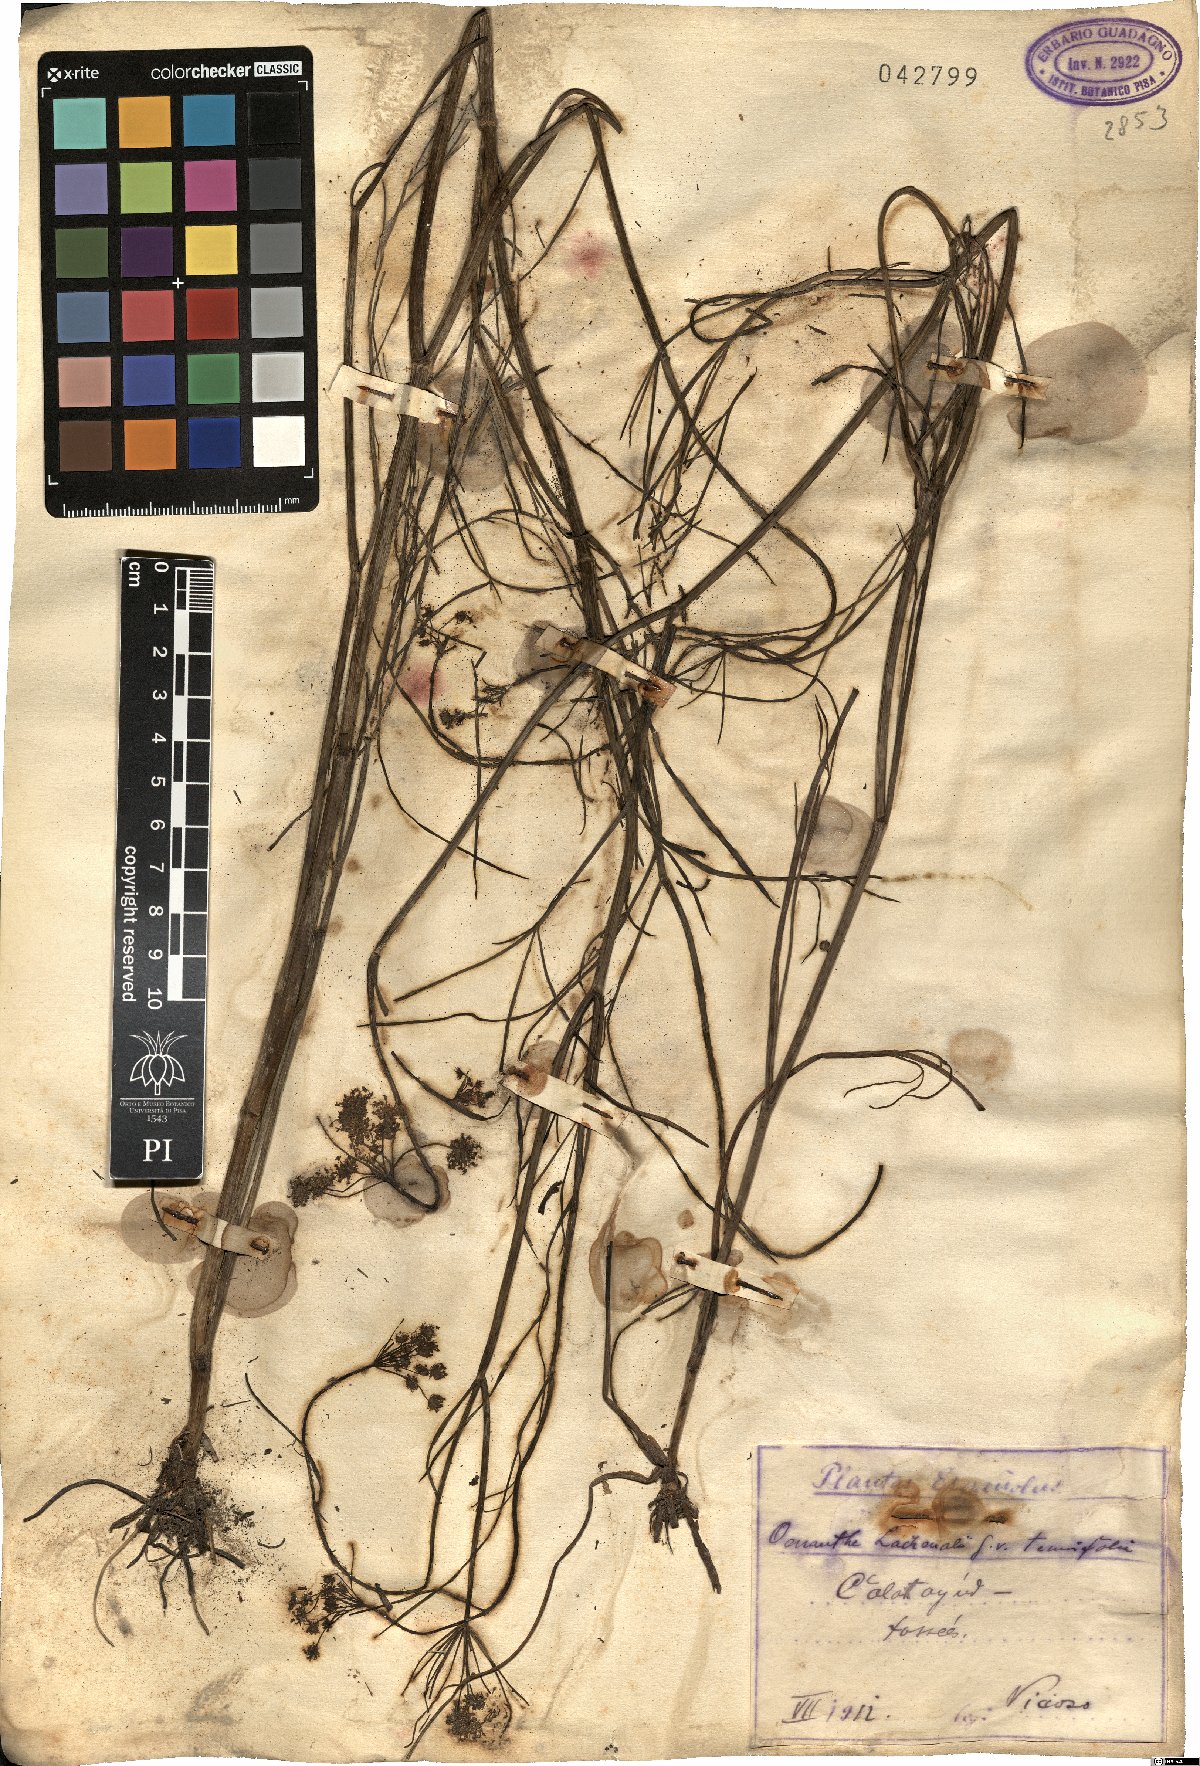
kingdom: Plantae
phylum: Tracheophyta
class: Magnoliopsida
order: Apiales
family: Apiaceae
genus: Oenanthe
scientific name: Oenanthe lachenalii
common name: Parsley water-dropwort
